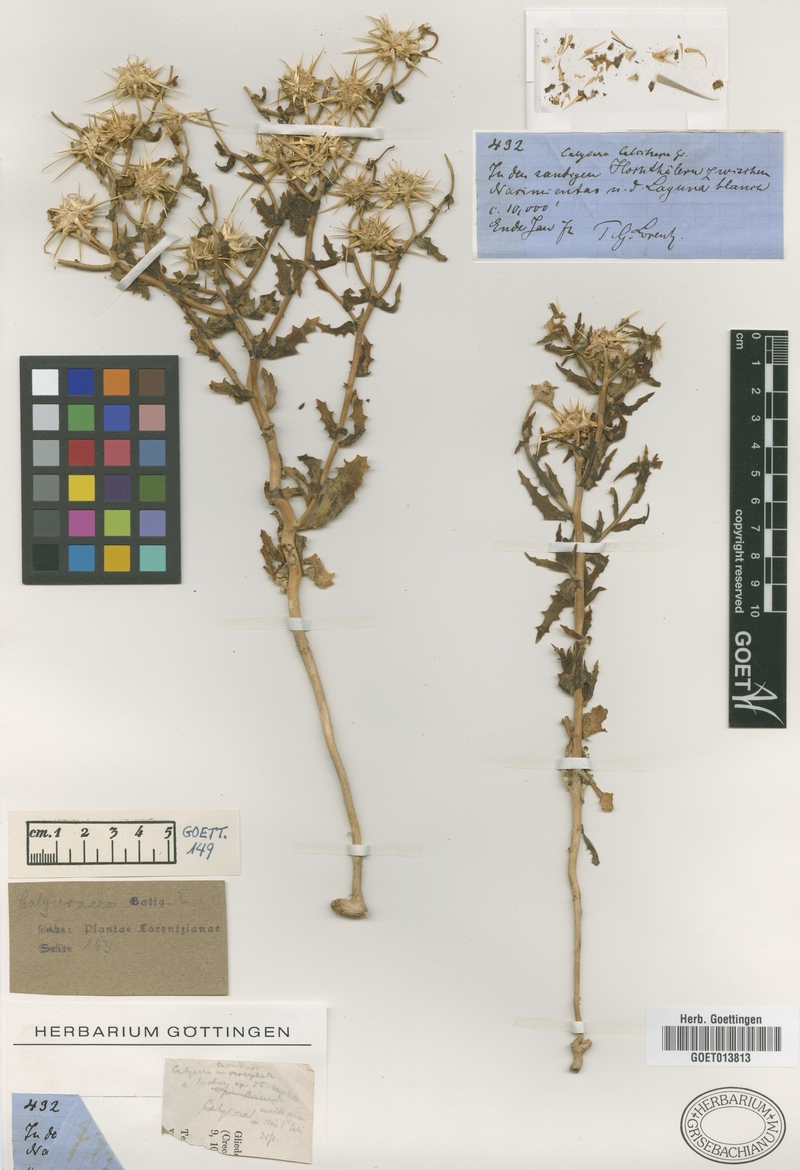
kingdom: Plantae
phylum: Tracheophyta
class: Magnoliopsida
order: Asterales
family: Calyceraceae
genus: Calycera
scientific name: Calycera calcitrapa
